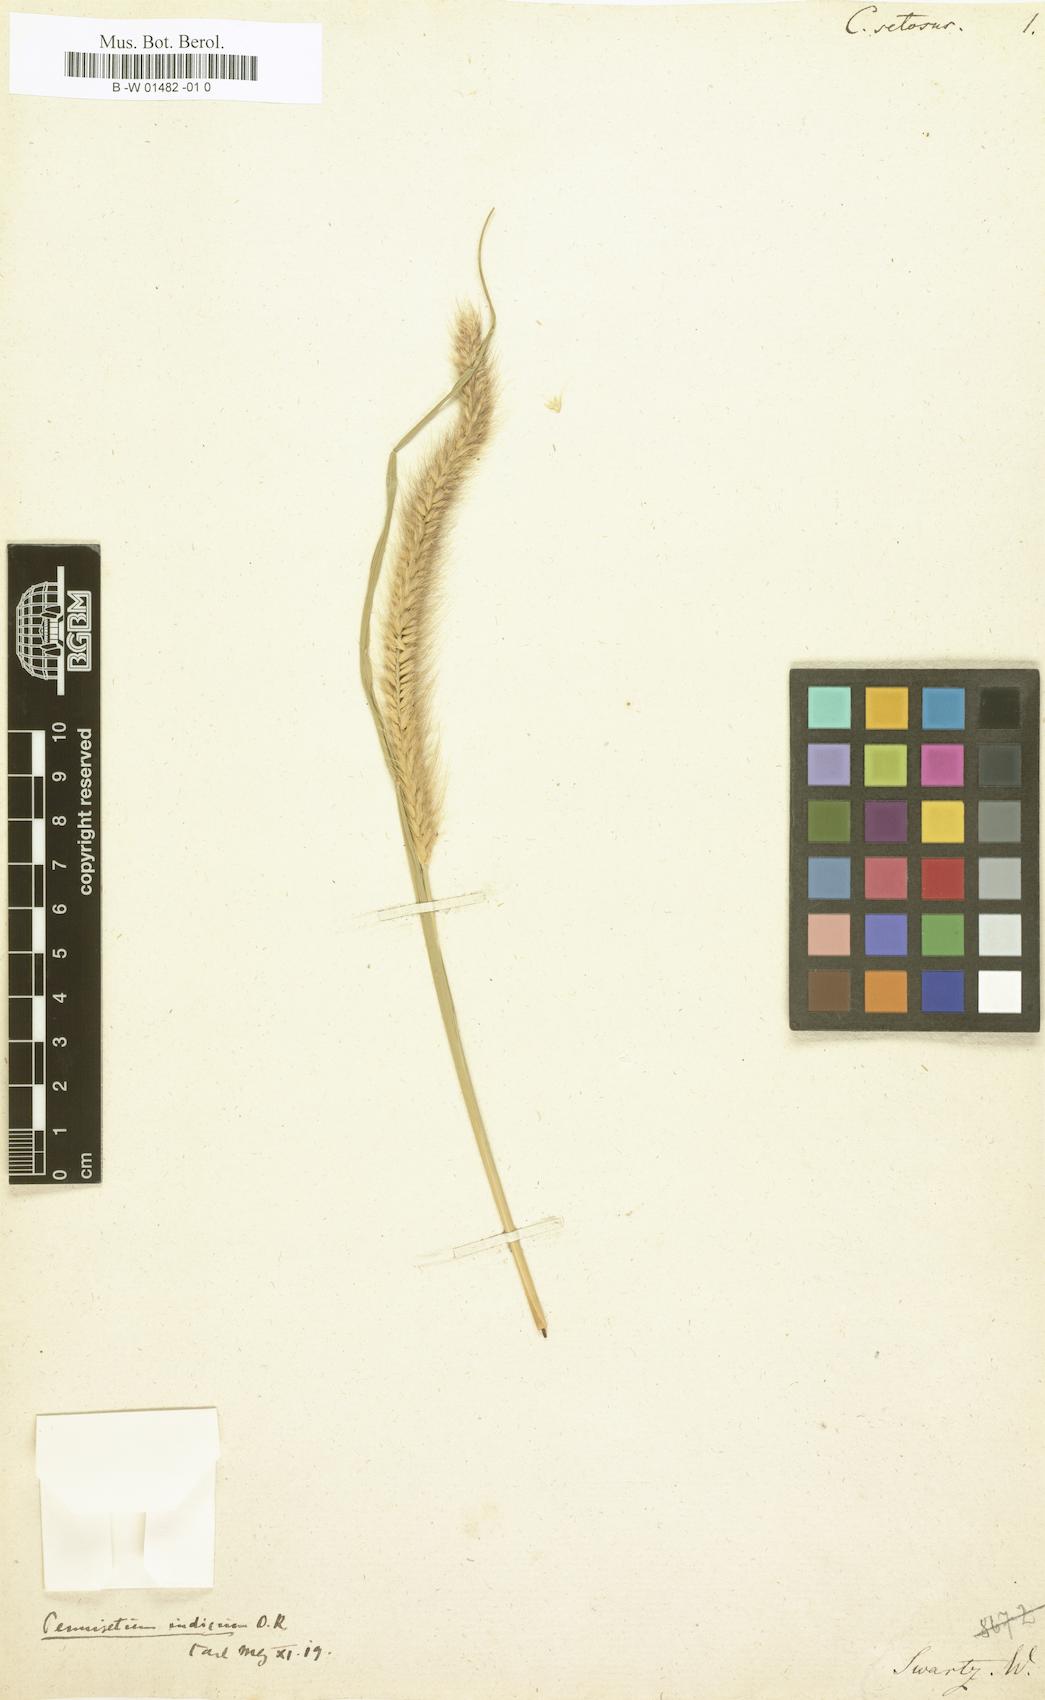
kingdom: Plantae
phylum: Tracheophyta
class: Liliopsida
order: Poales
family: Poaceae
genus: Cenchrus
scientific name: Cenchrus setosus
